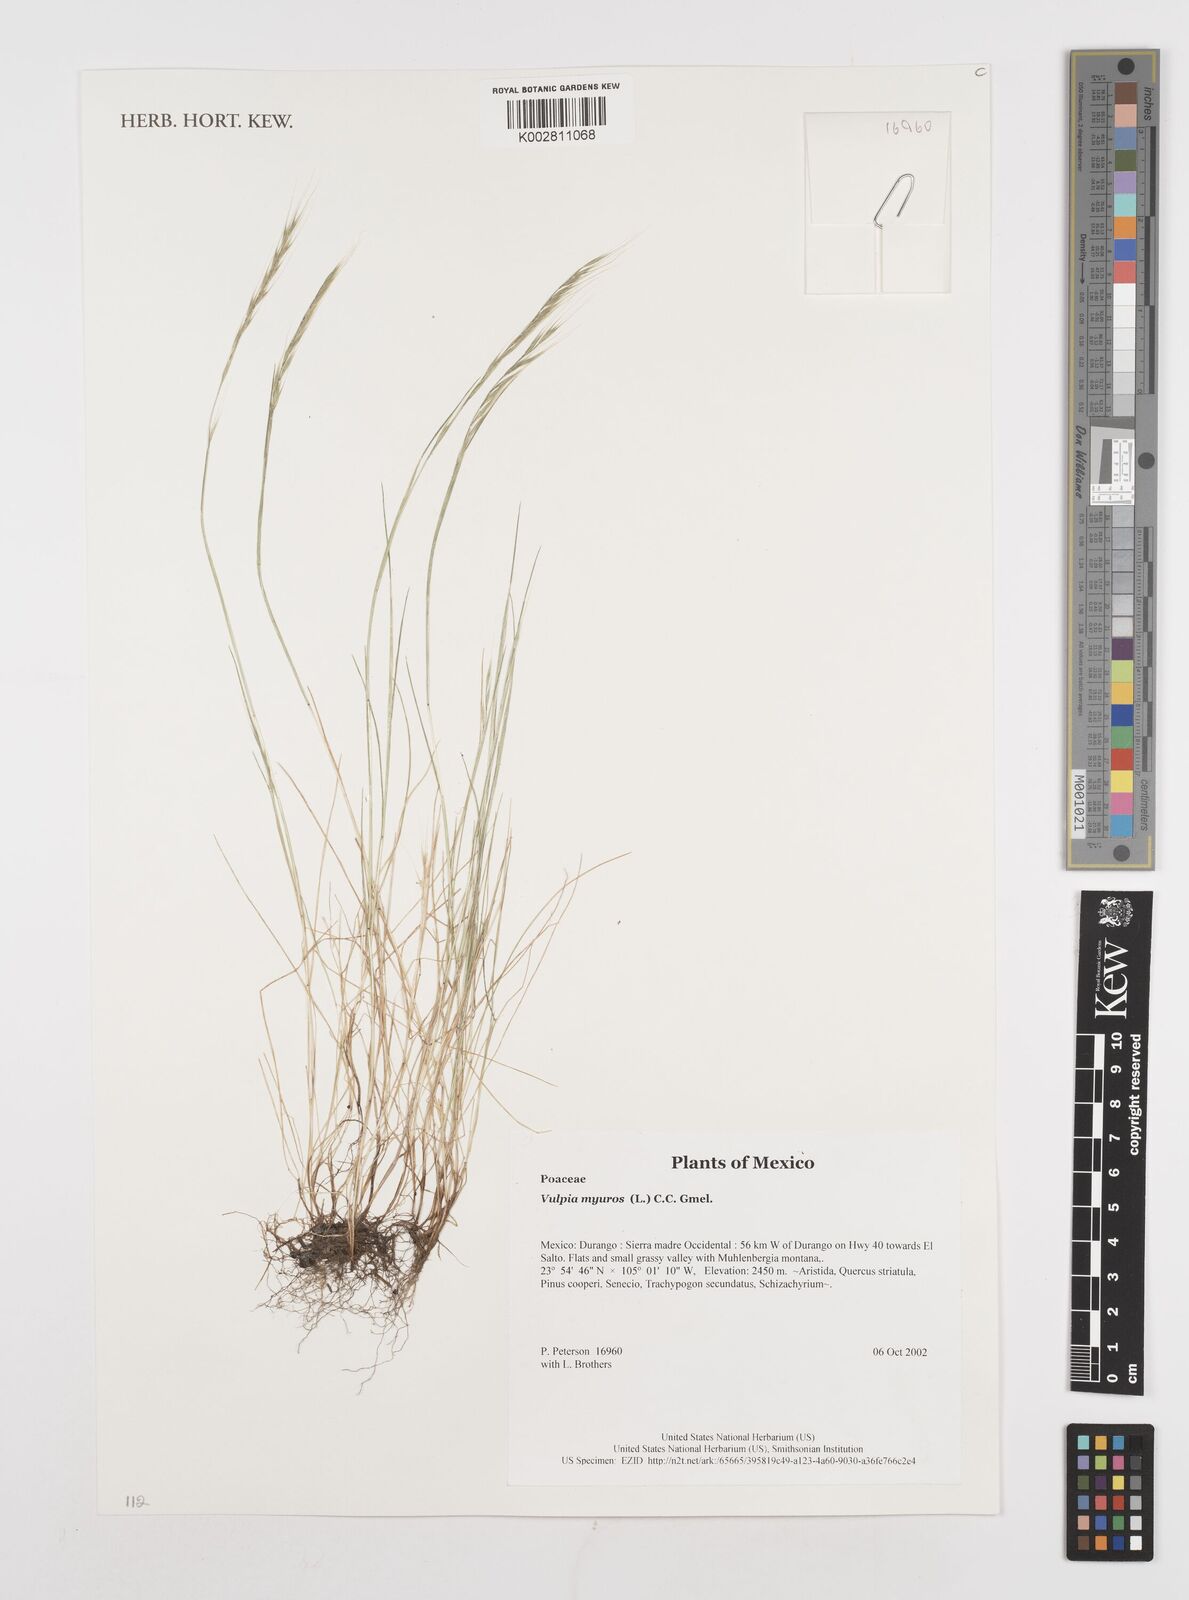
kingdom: Plantae
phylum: Tracheophyta
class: Liliopsida
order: Poales
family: Poaceae
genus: Festuca
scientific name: Festuca myuros
